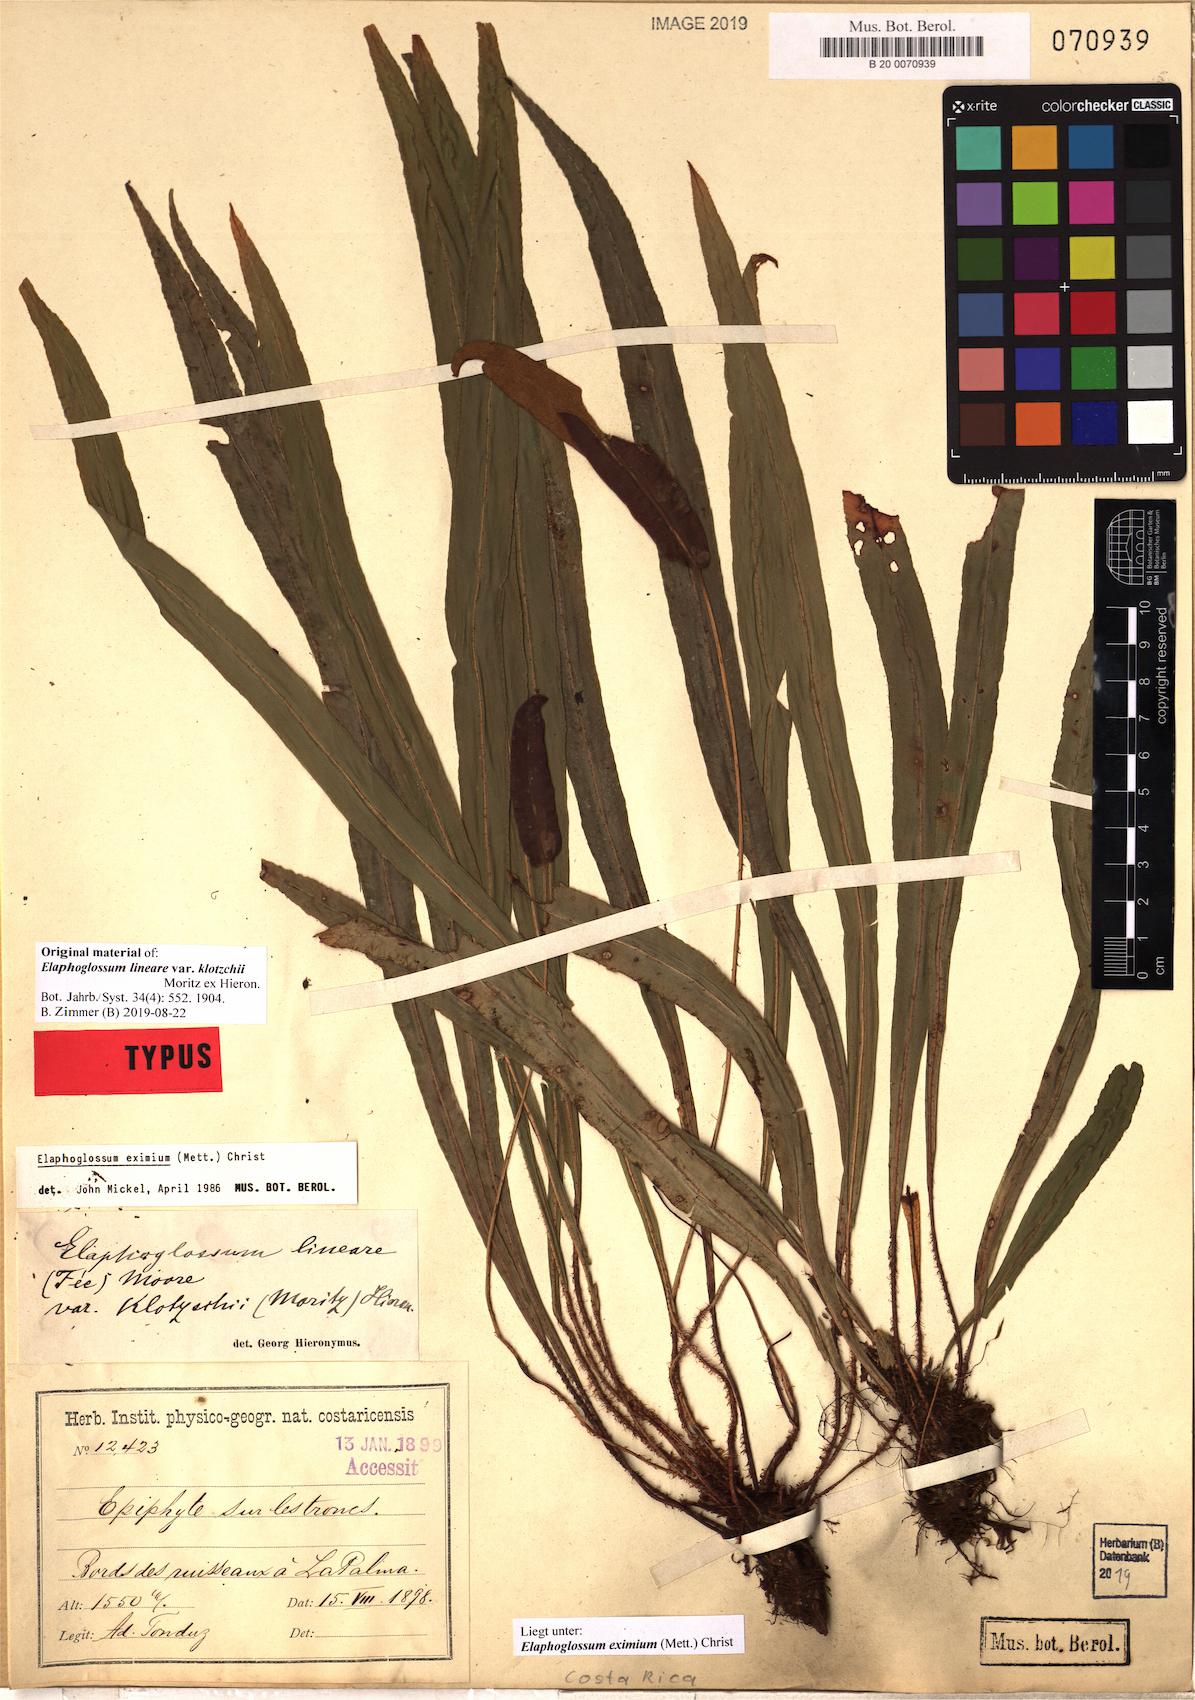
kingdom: Plantae
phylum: Tracheophyta
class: Polypodiopsida
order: Polypodiales
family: Dryopteridaceae
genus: Elaphoglossum
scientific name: Elaphoglossum eximium
